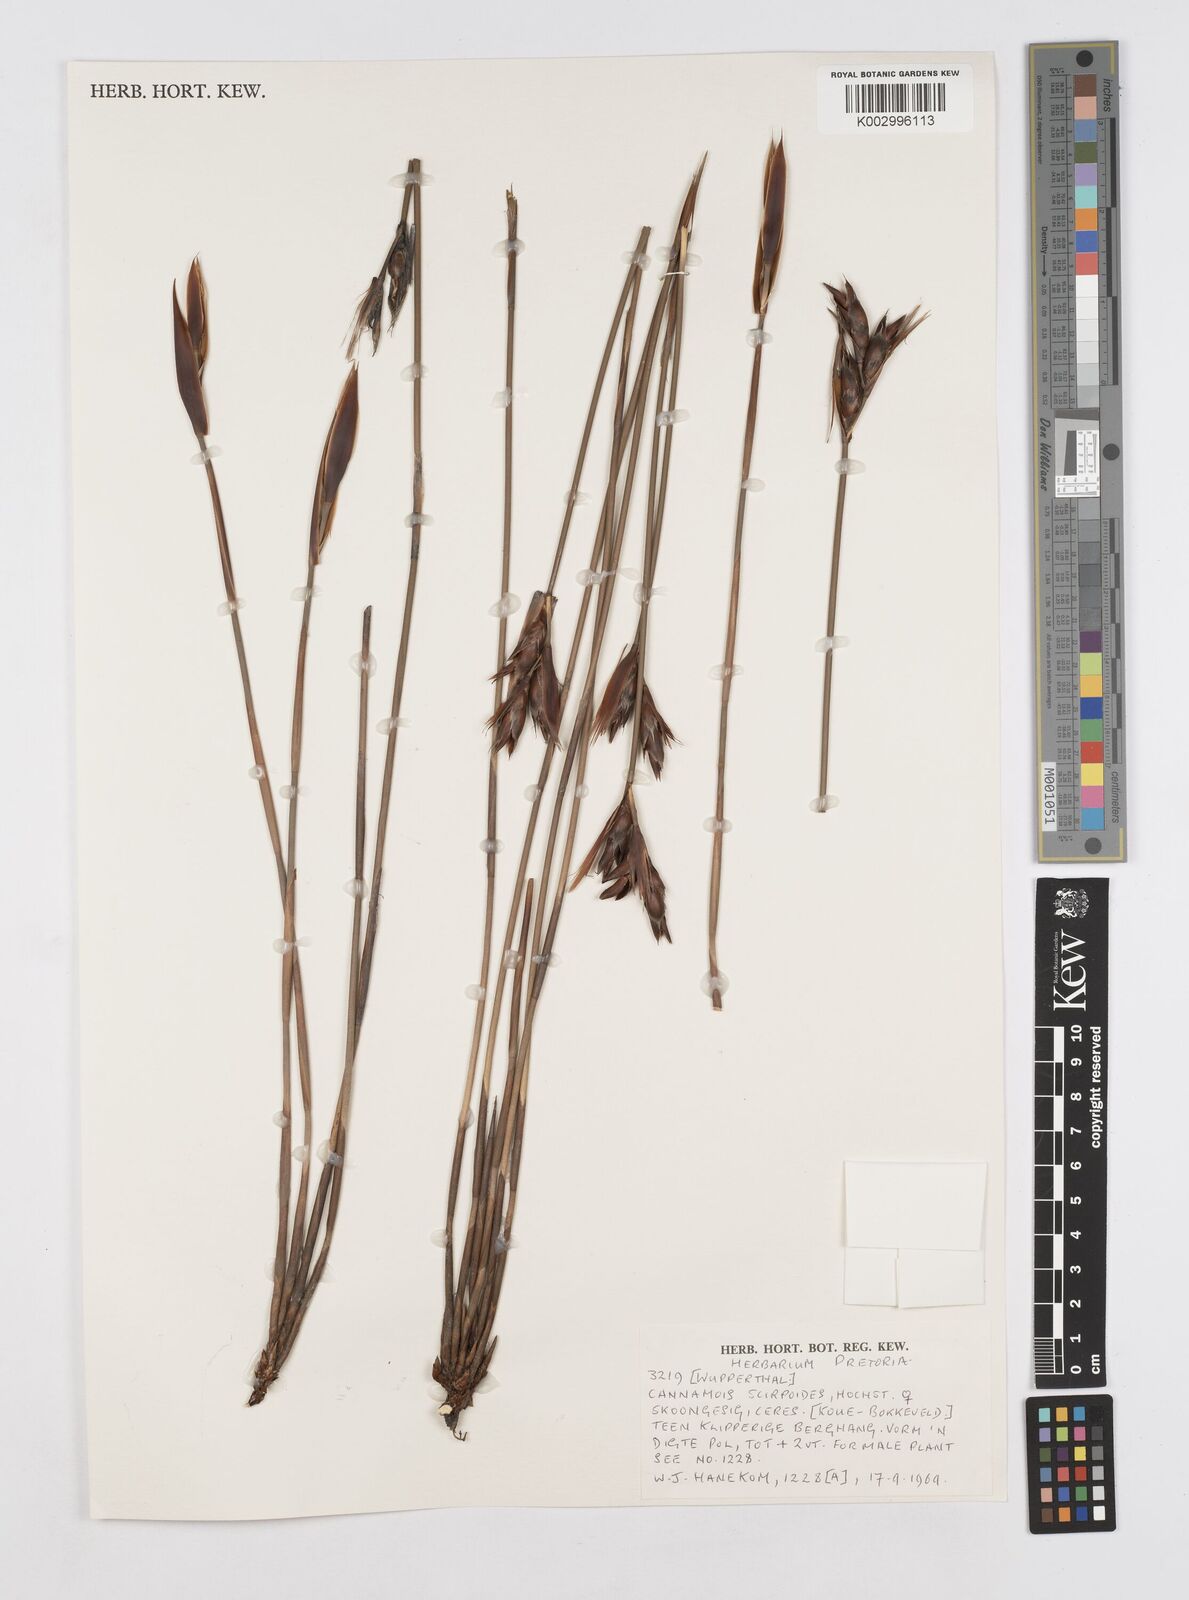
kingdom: Plantae
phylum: Tracheophyta
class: Liliopsida
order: Poales
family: Restionaceae
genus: Cannomois
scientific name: Cannomois scirpoides
